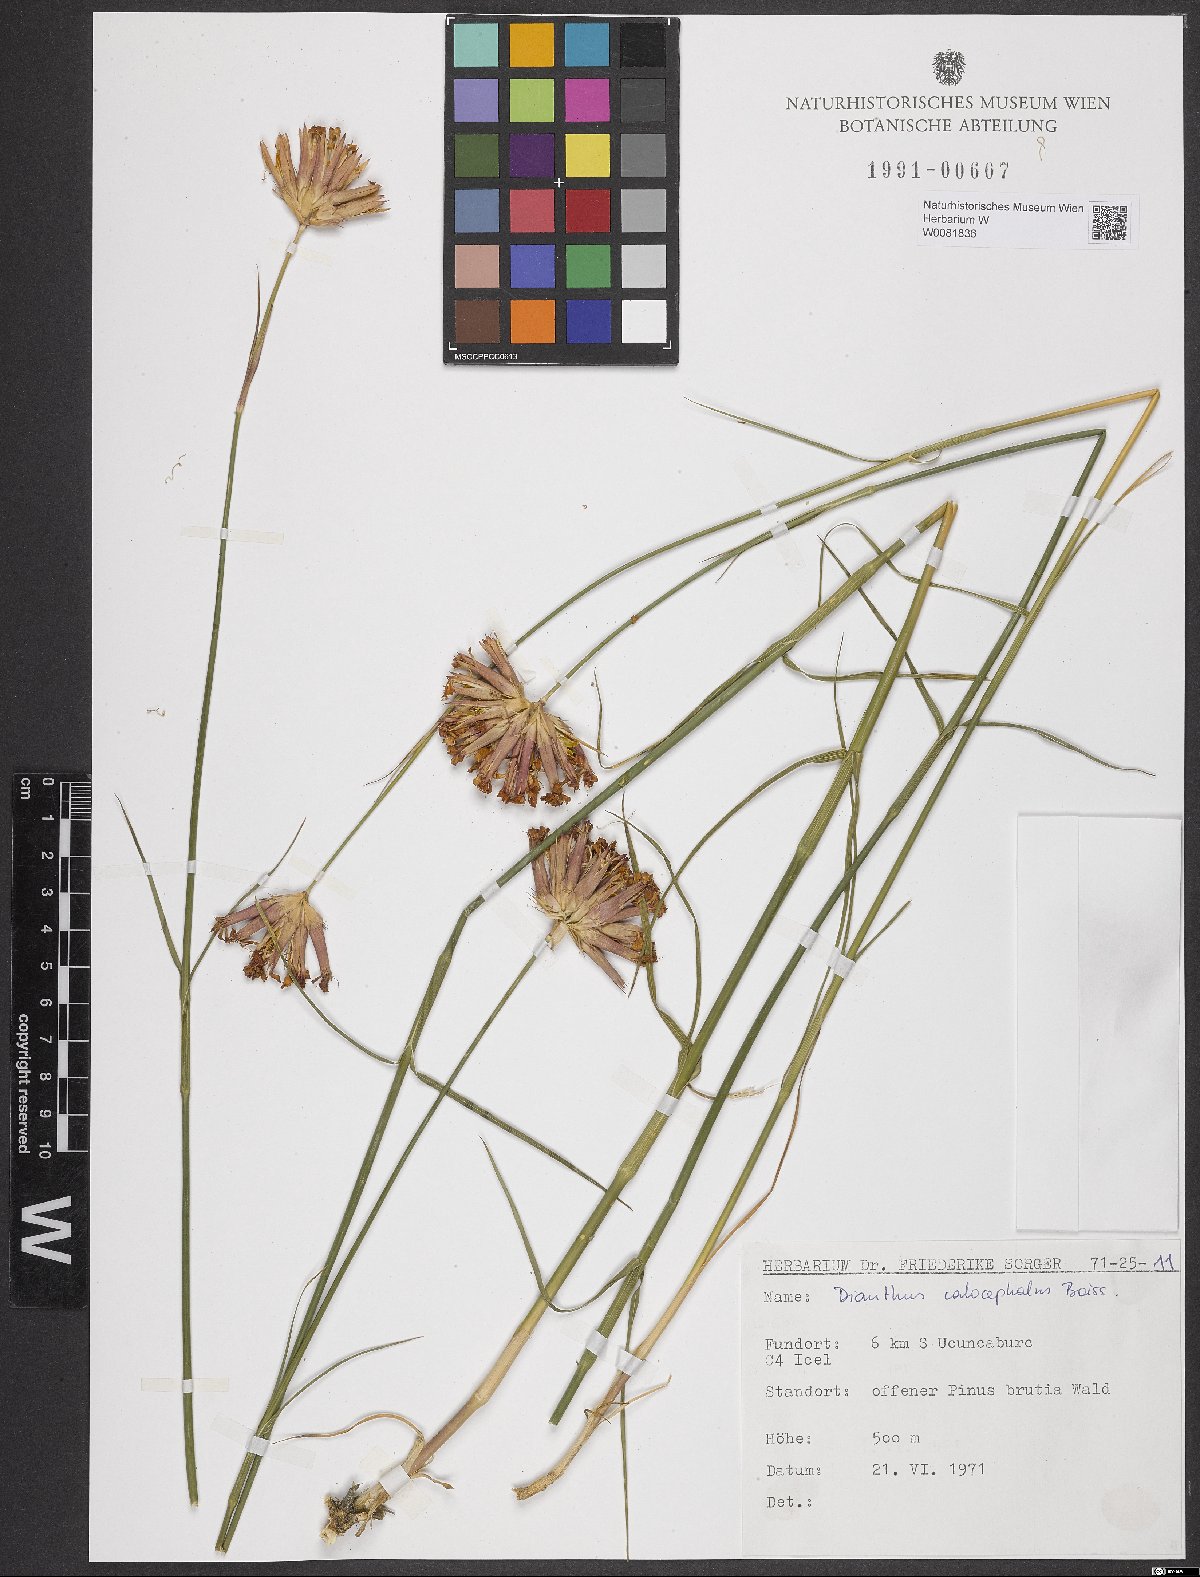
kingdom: Plantae
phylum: Tracheophyta
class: Magnoliopsida
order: Caryophyllales
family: Caryophyllaceae
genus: Dianthus
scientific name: Dianthus cruentus
